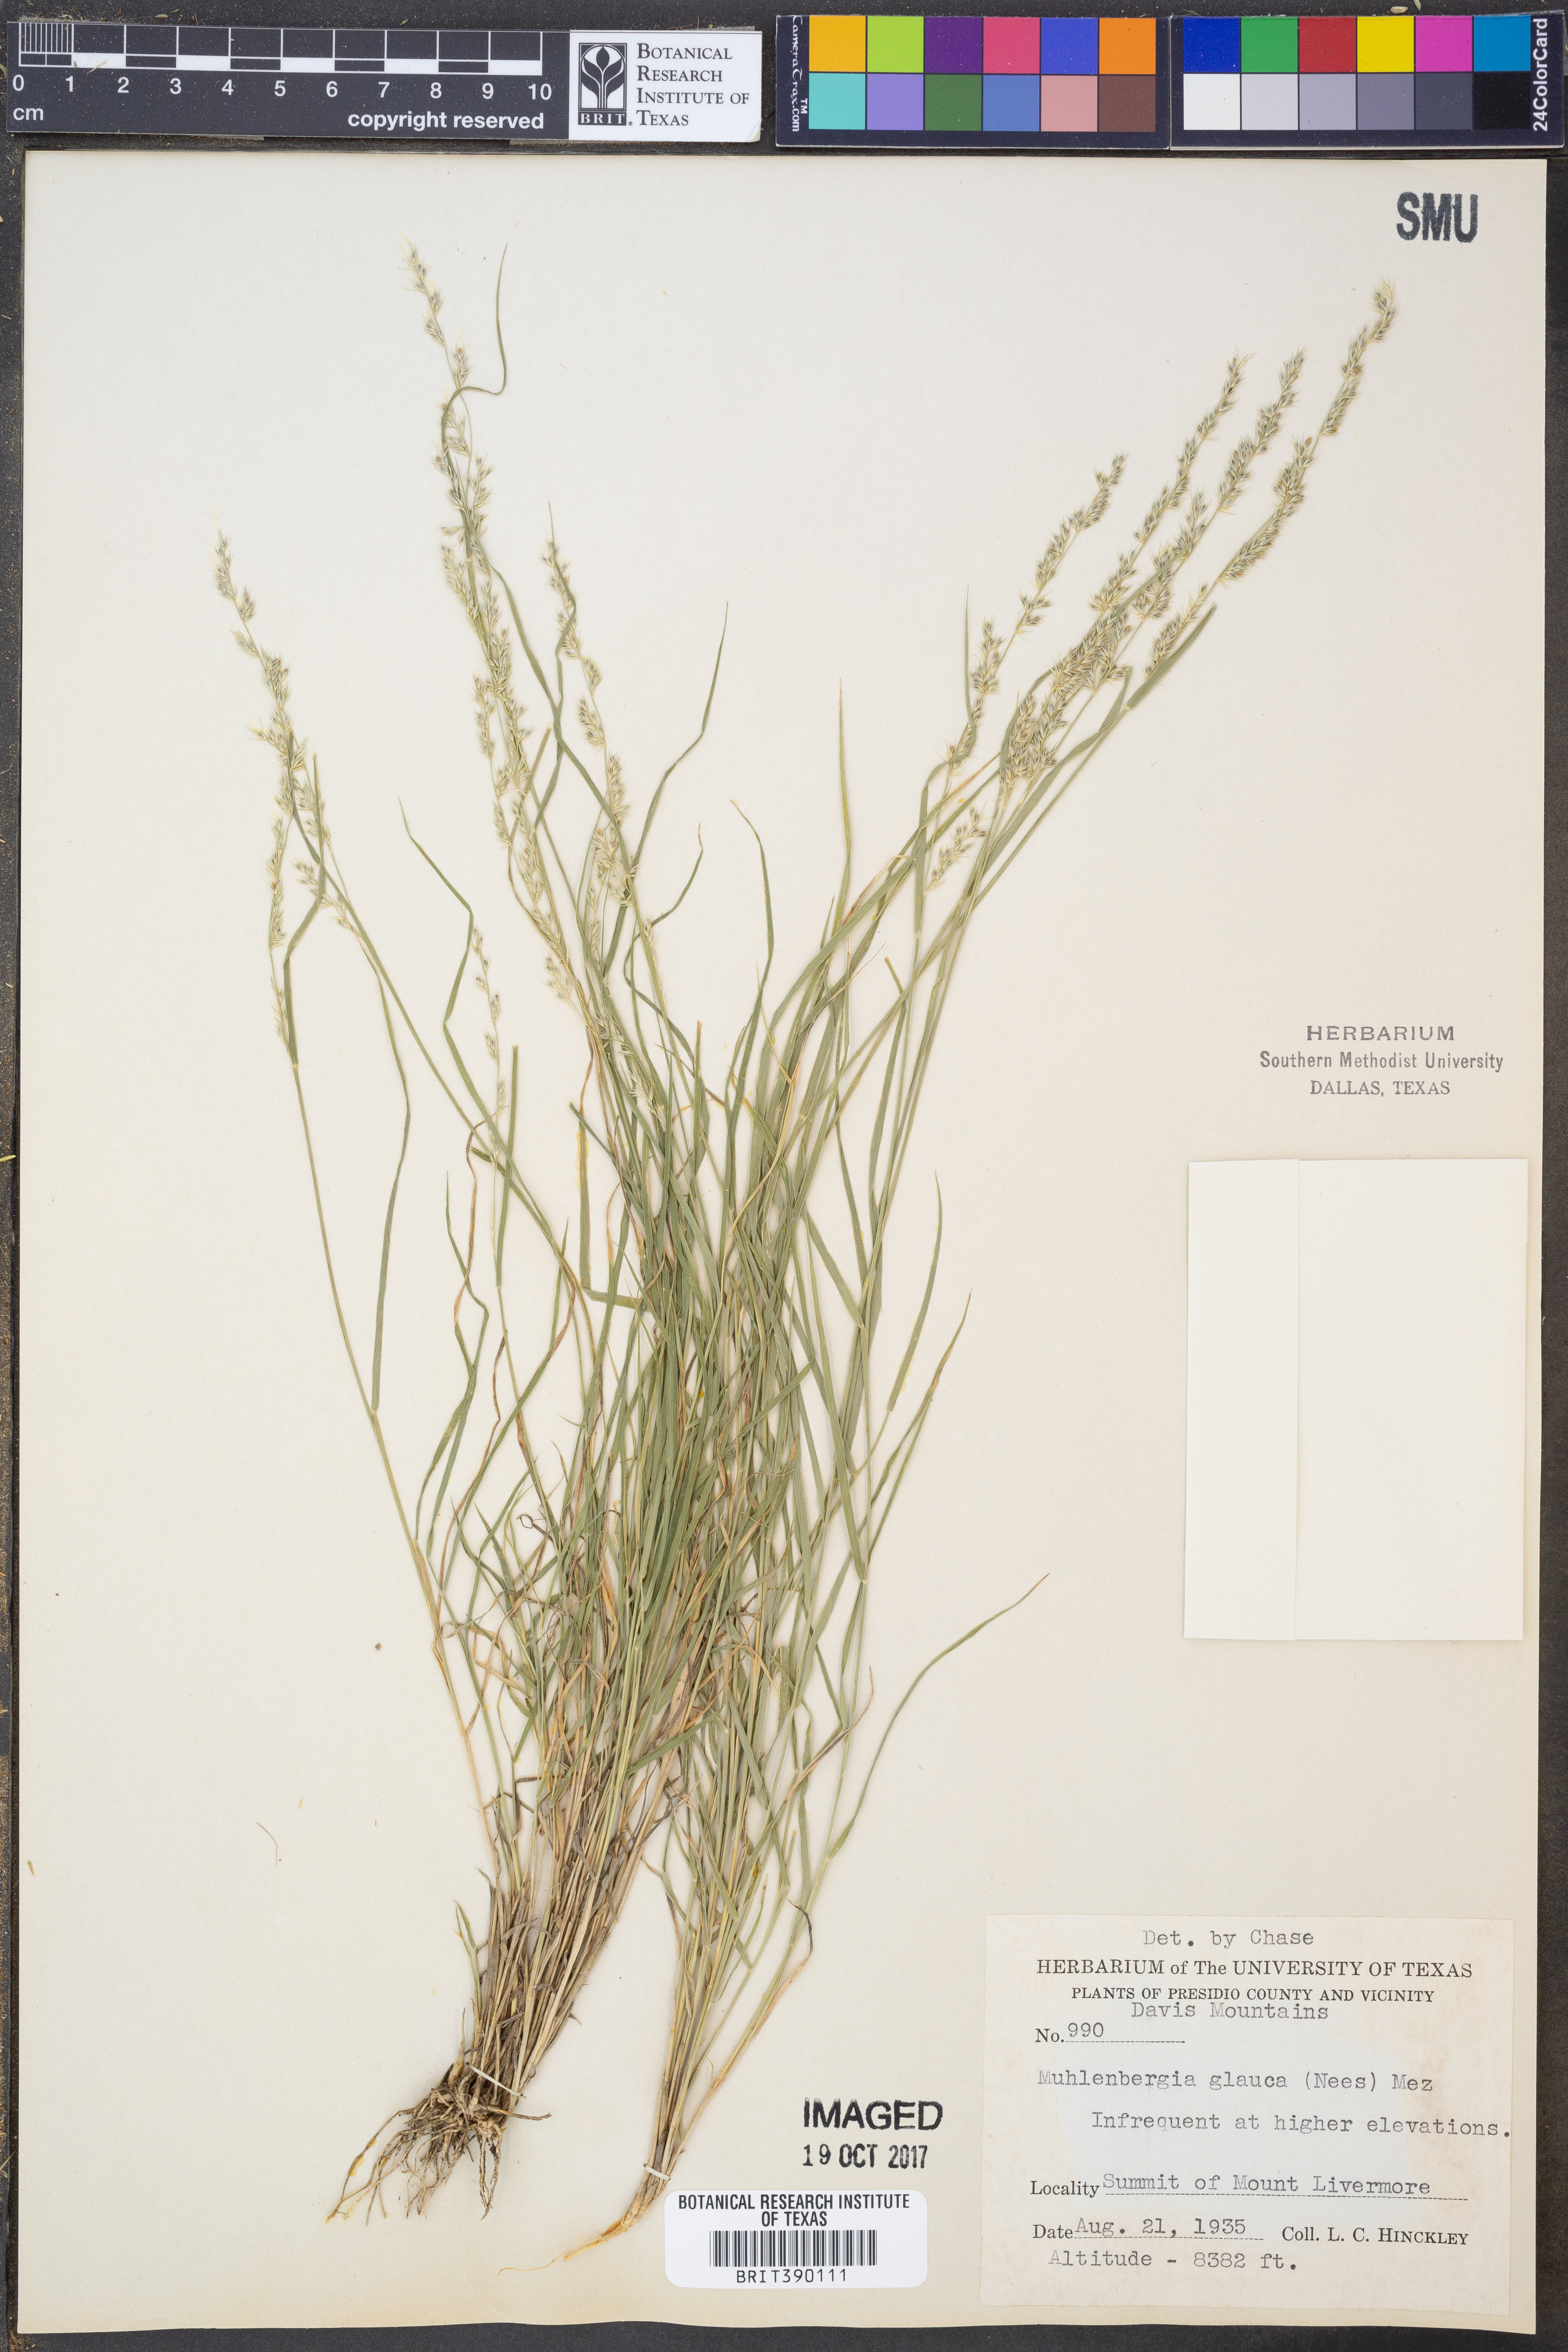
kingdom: Plantae
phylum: Tracheophyta
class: Liliopsida
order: Poales
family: Poaceae
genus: Muhlenbergia
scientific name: Muhlenbergia glauca
